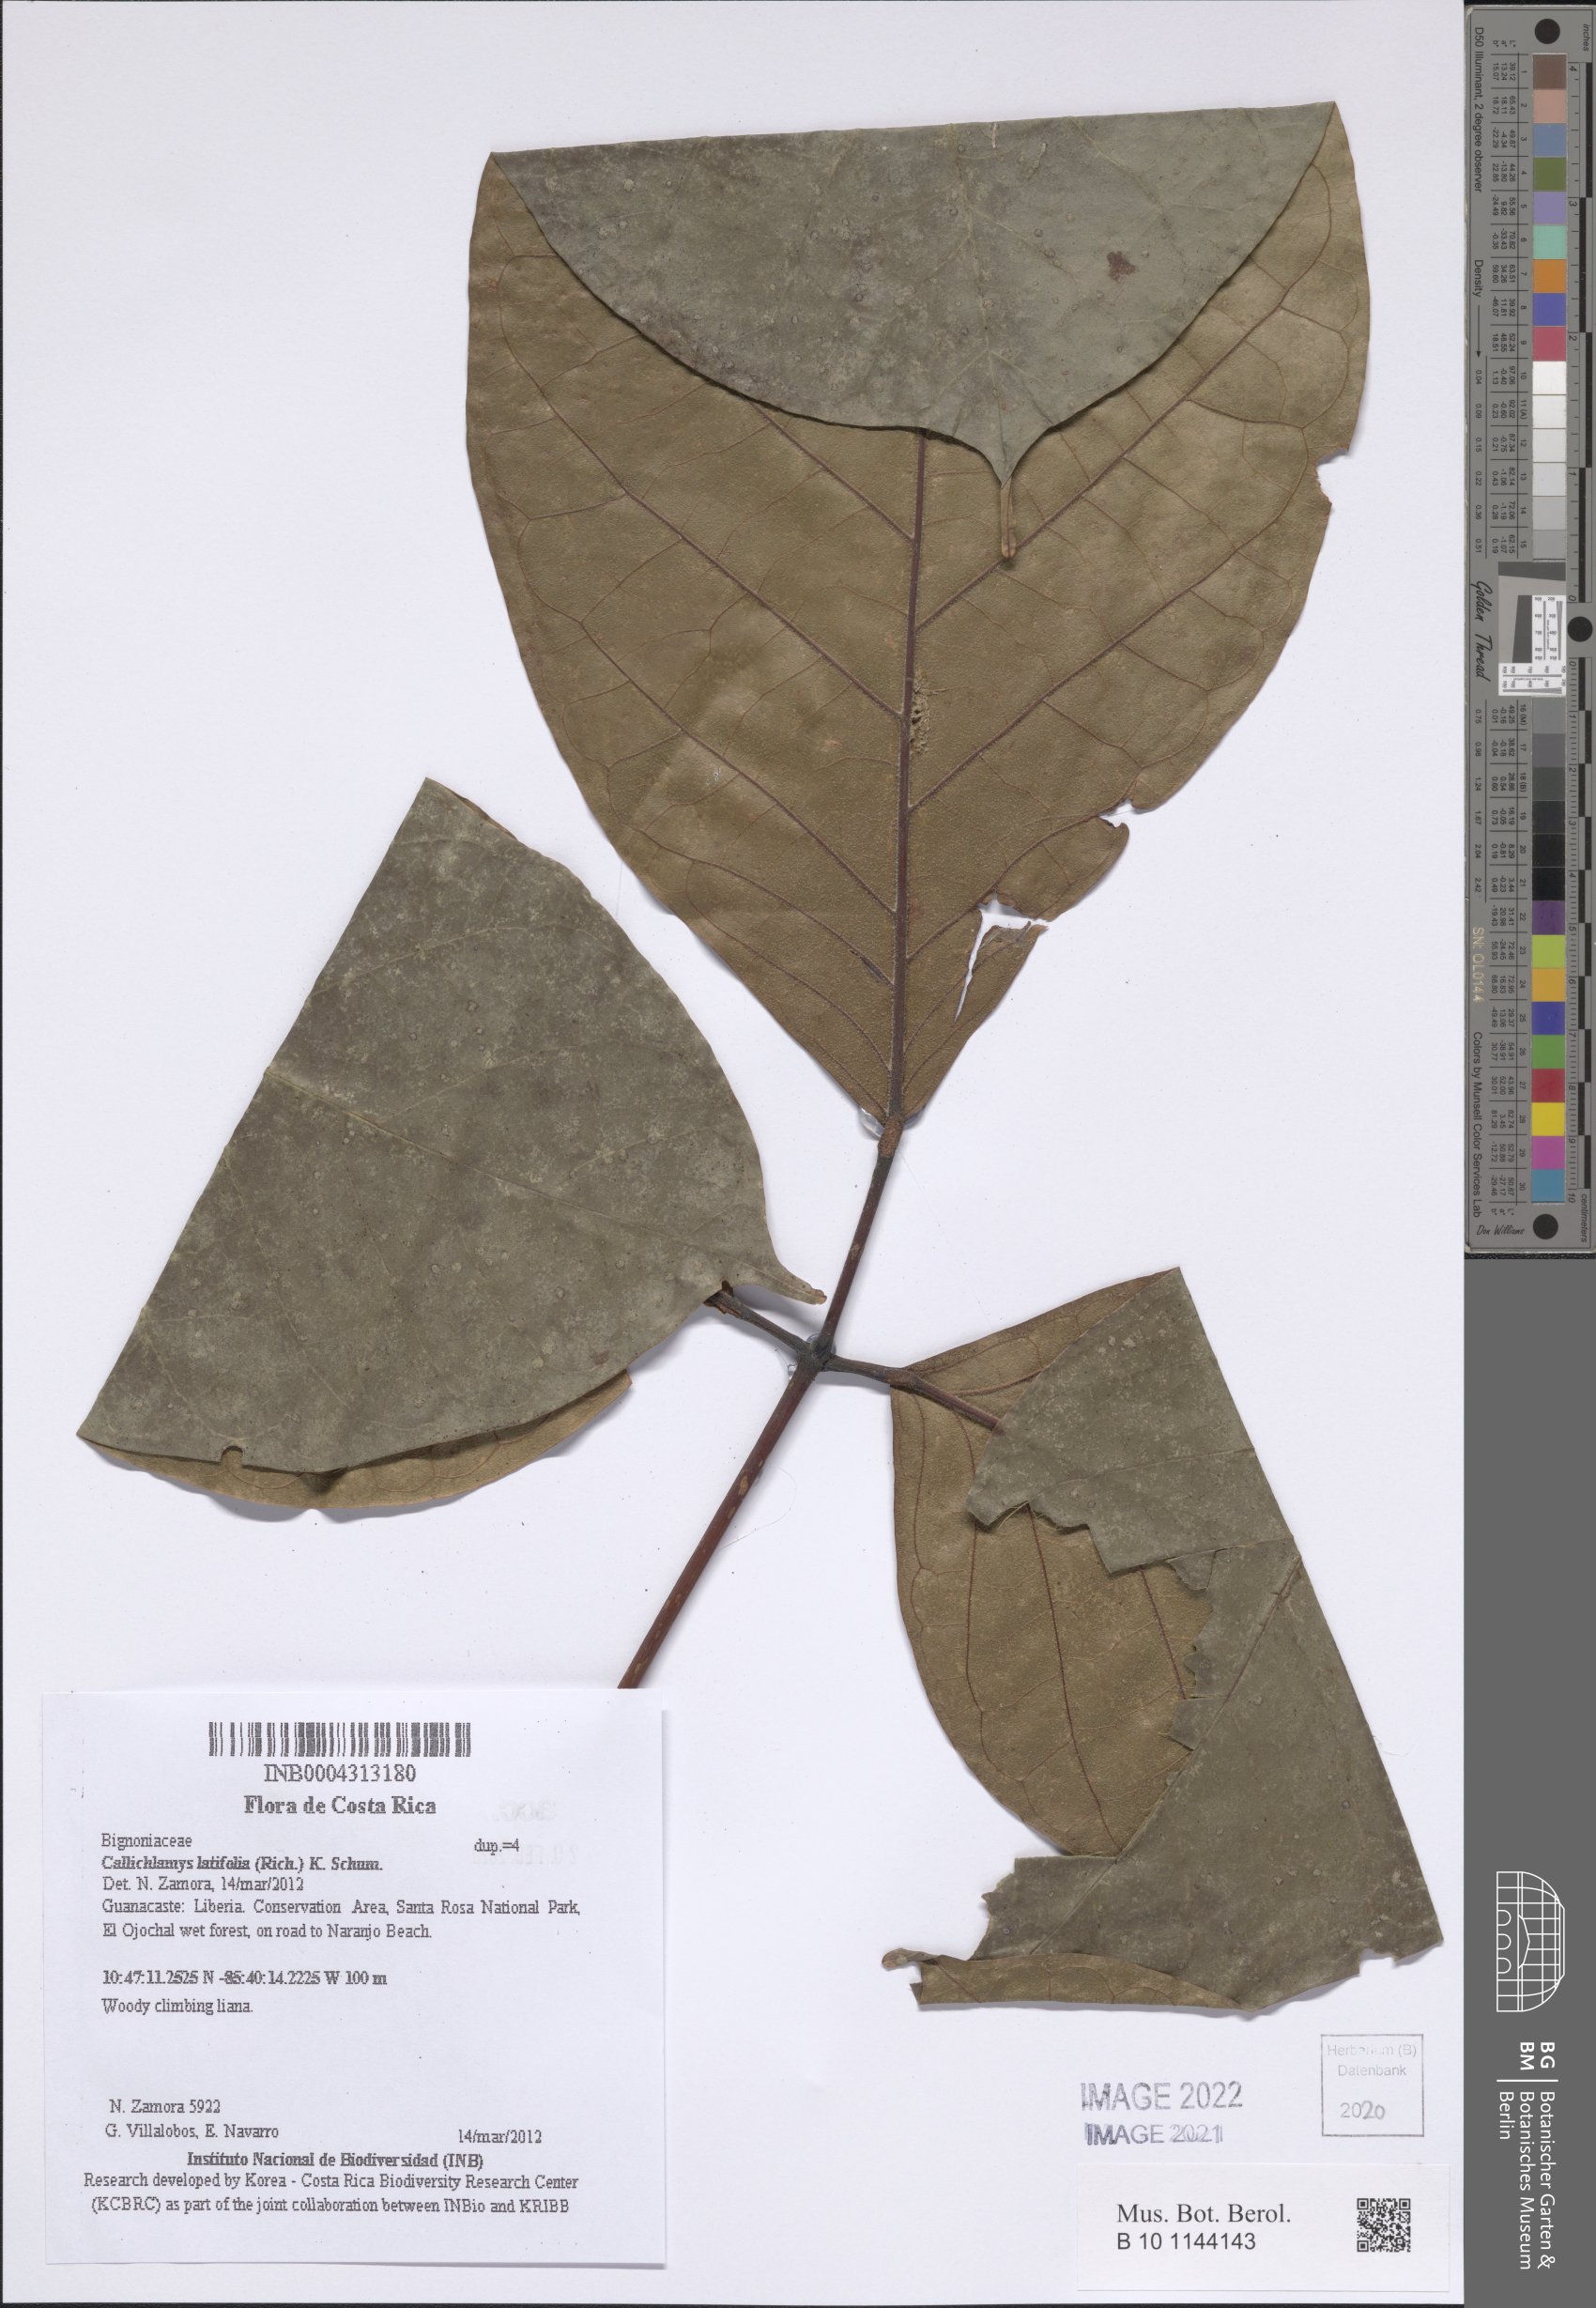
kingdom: Plantae
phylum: Tracheophyta
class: Magnoliopsida
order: Lamiales
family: Bignoniaceae
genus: Callichlamys
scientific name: Callichlamys latifolia
